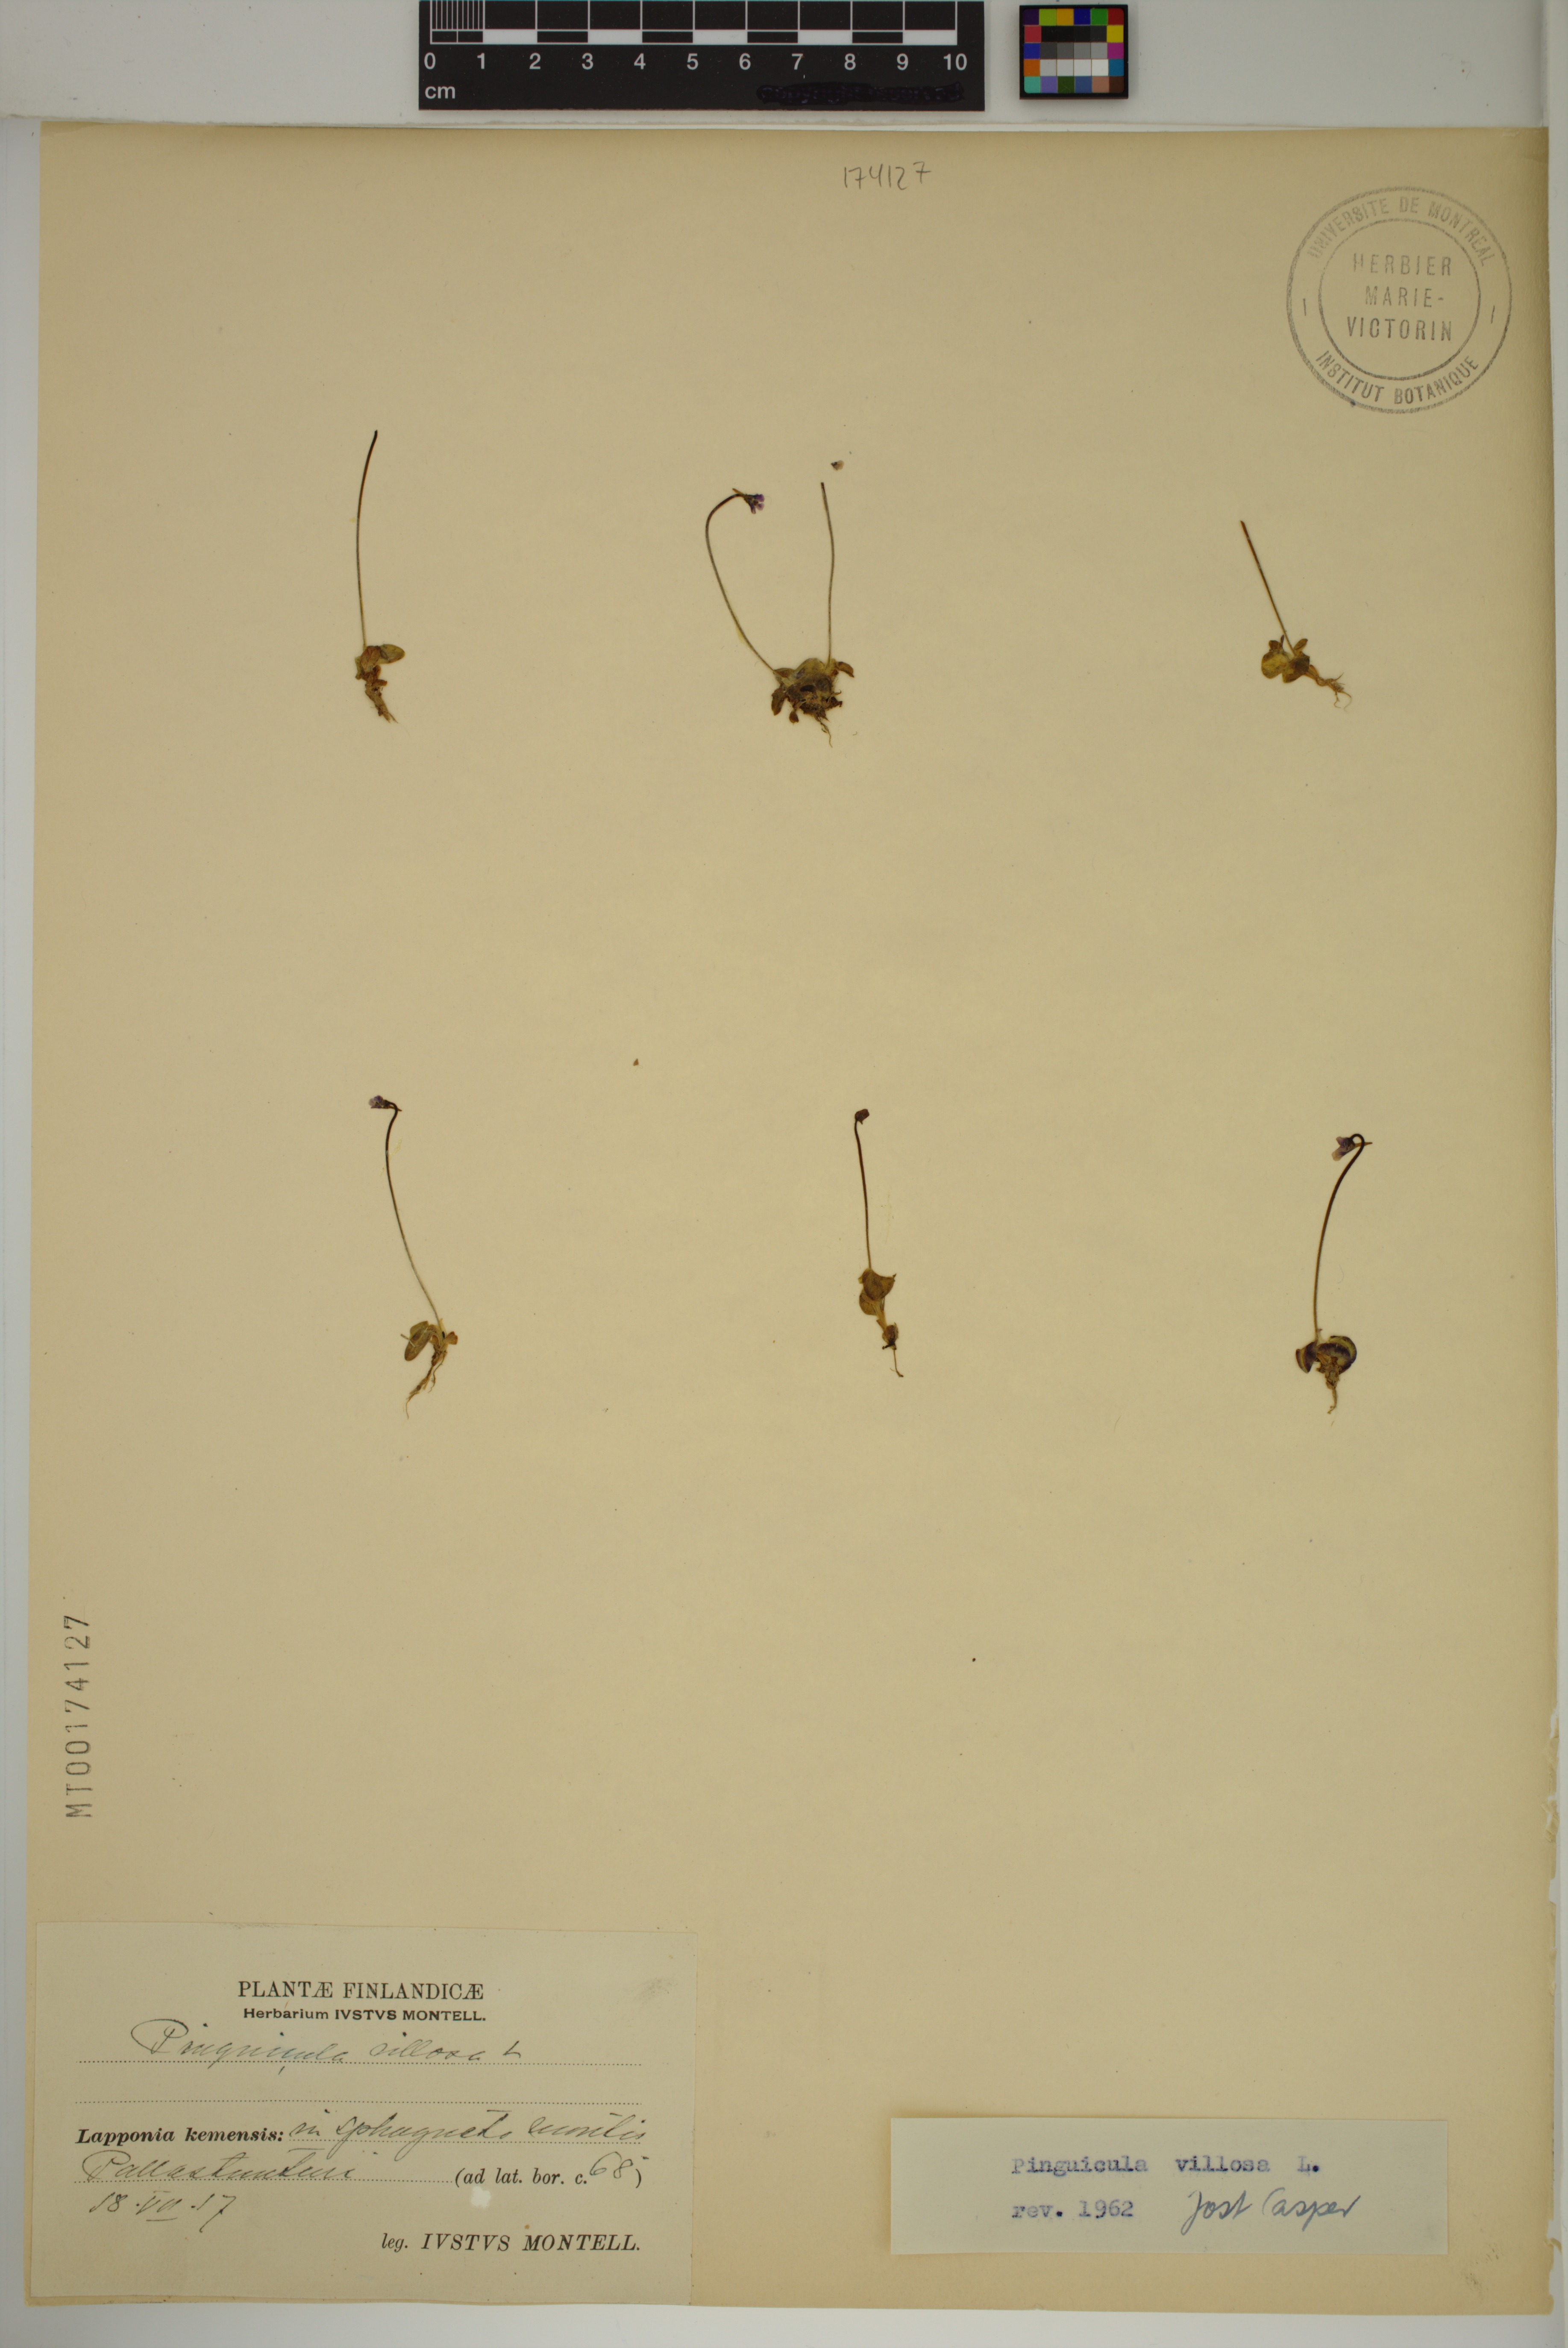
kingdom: Plantae
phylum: Tracheophyta
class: Magnoliopsida
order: Lamiales
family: Lentibulariaceae
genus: Pinguicula
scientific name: Pinguicula villosa
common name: Hairy butterwort
